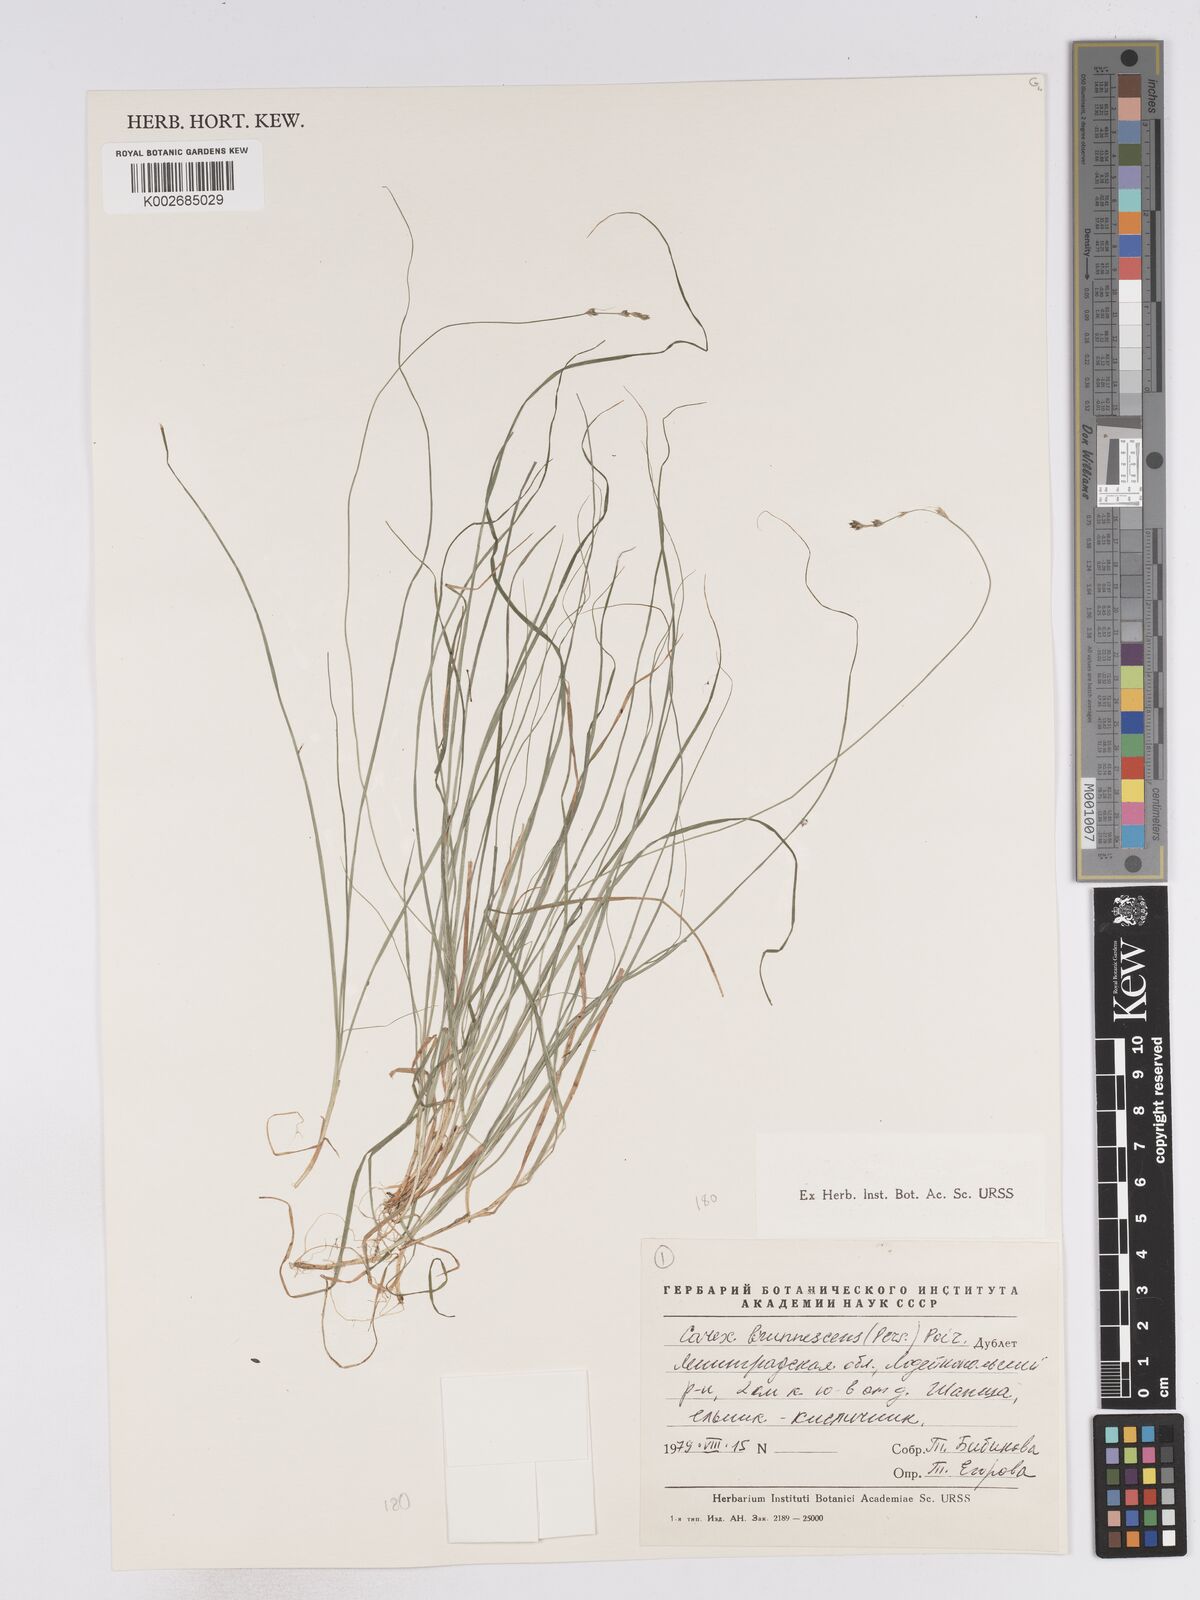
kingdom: Plantae
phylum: Tracheophyta
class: Liliopsida
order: Poales
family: Cyperaceae
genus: Carex
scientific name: Carex brunnescens
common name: Brown sedge
